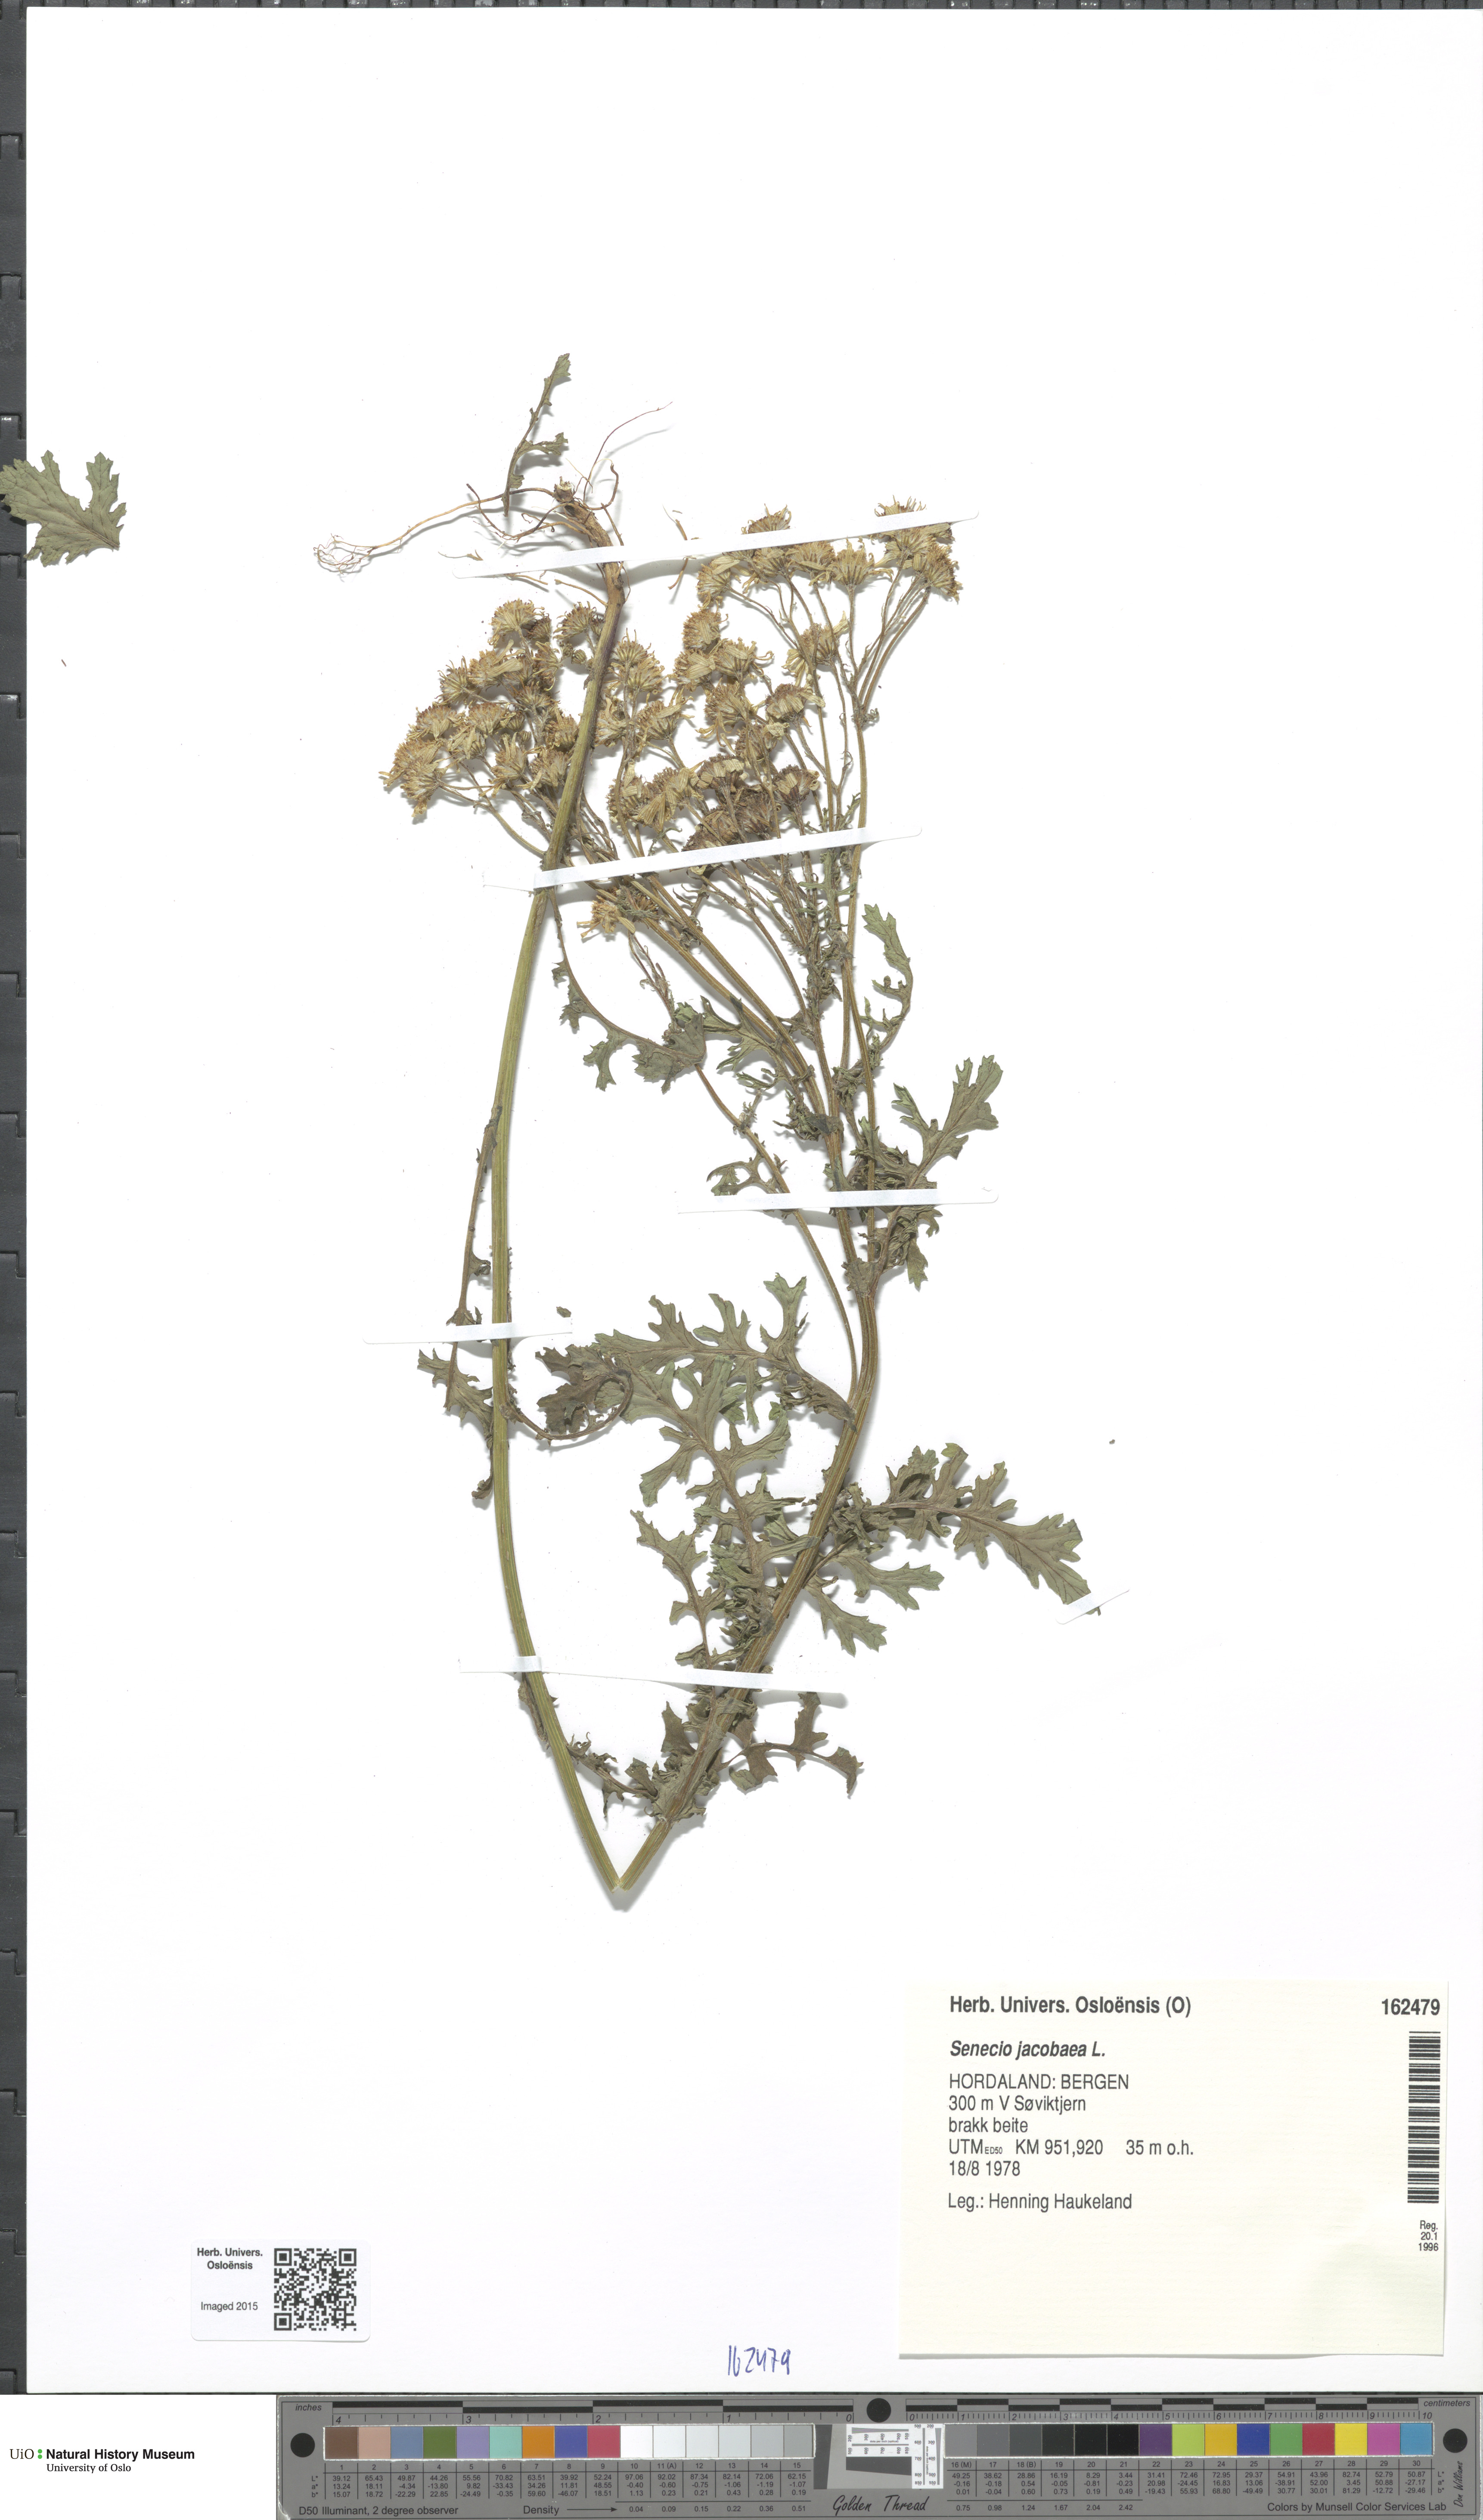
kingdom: Plantae
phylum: Tracheophyta
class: Magnoliopsida
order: Asterales
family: Asteraceae
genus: Jacobaea
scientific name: Jacobaea vulgaris
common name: Stinking willie
